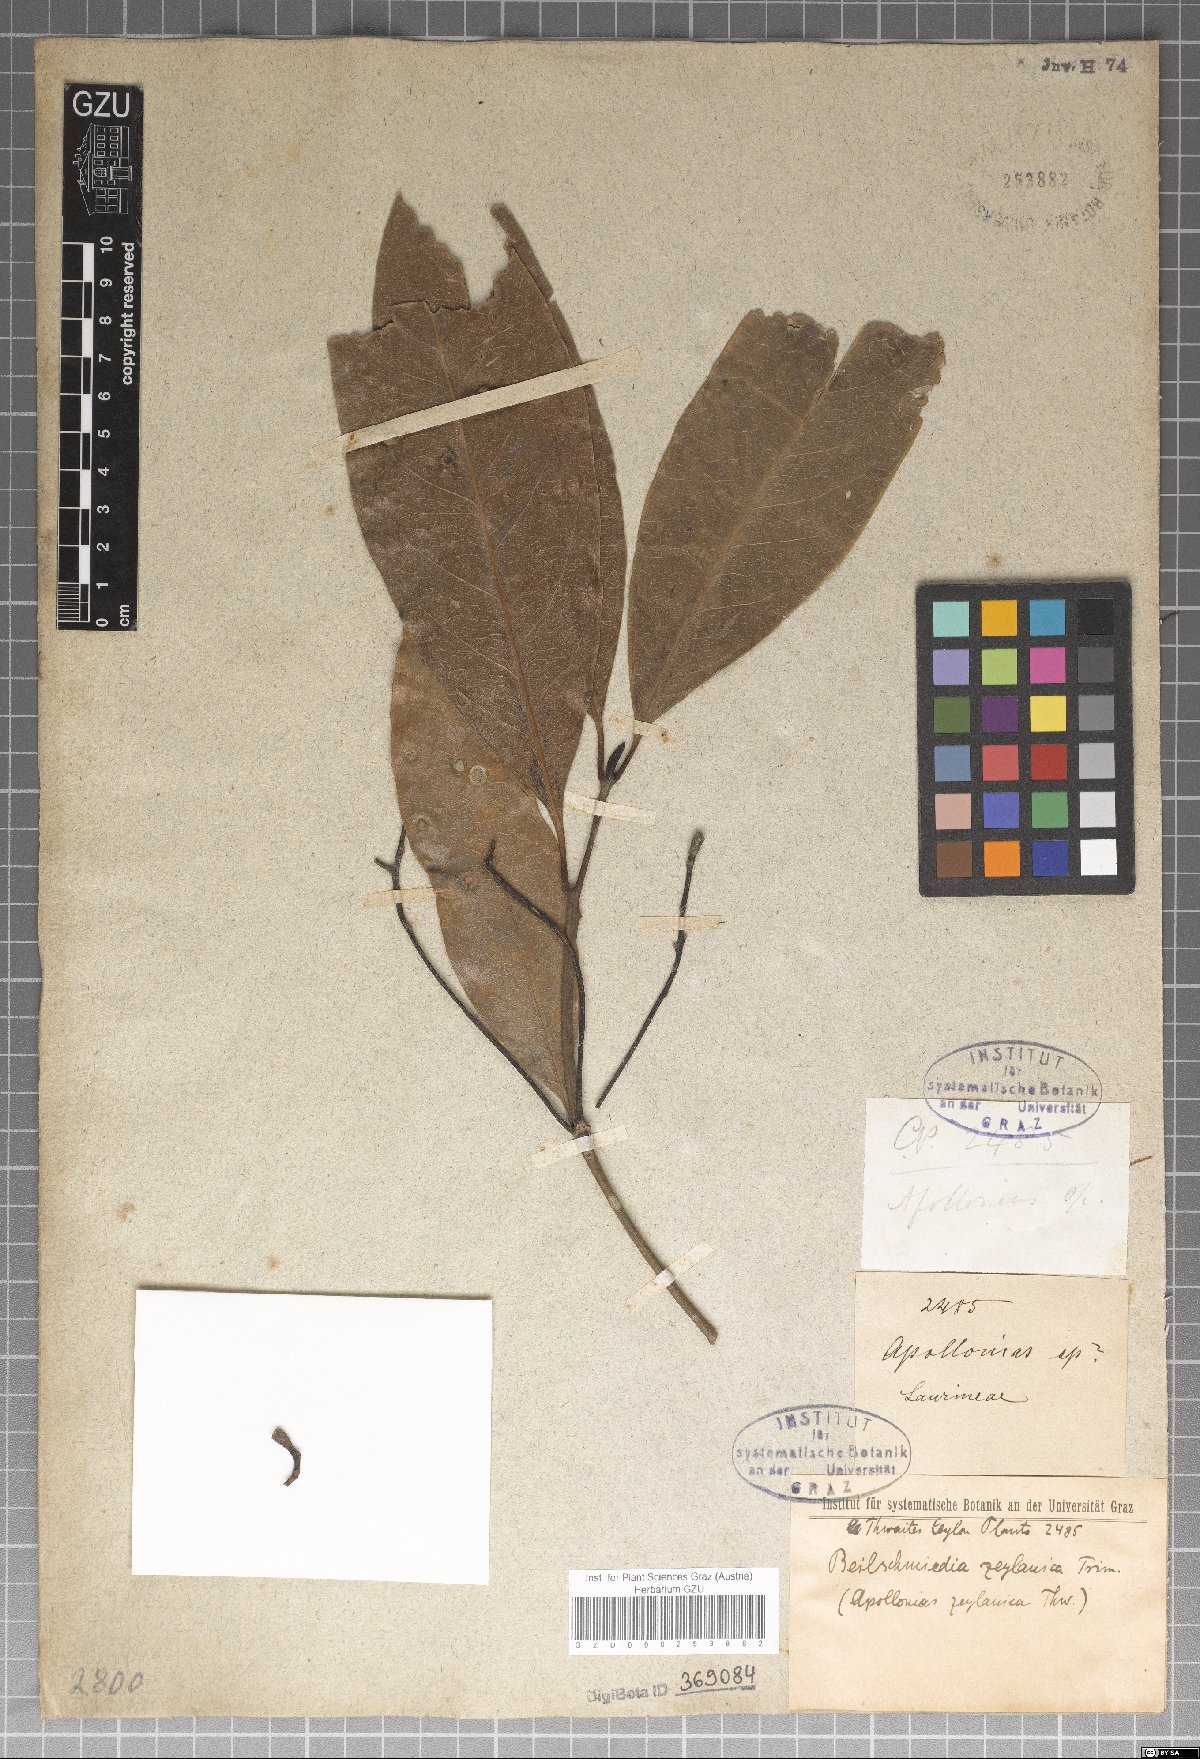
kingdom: Plantae
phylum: Tracheophyta
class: Magnoliopsida
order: Laurales
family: Lauraceae
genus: Beilschmiedia
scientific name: Beilschmiedia zeylanica
